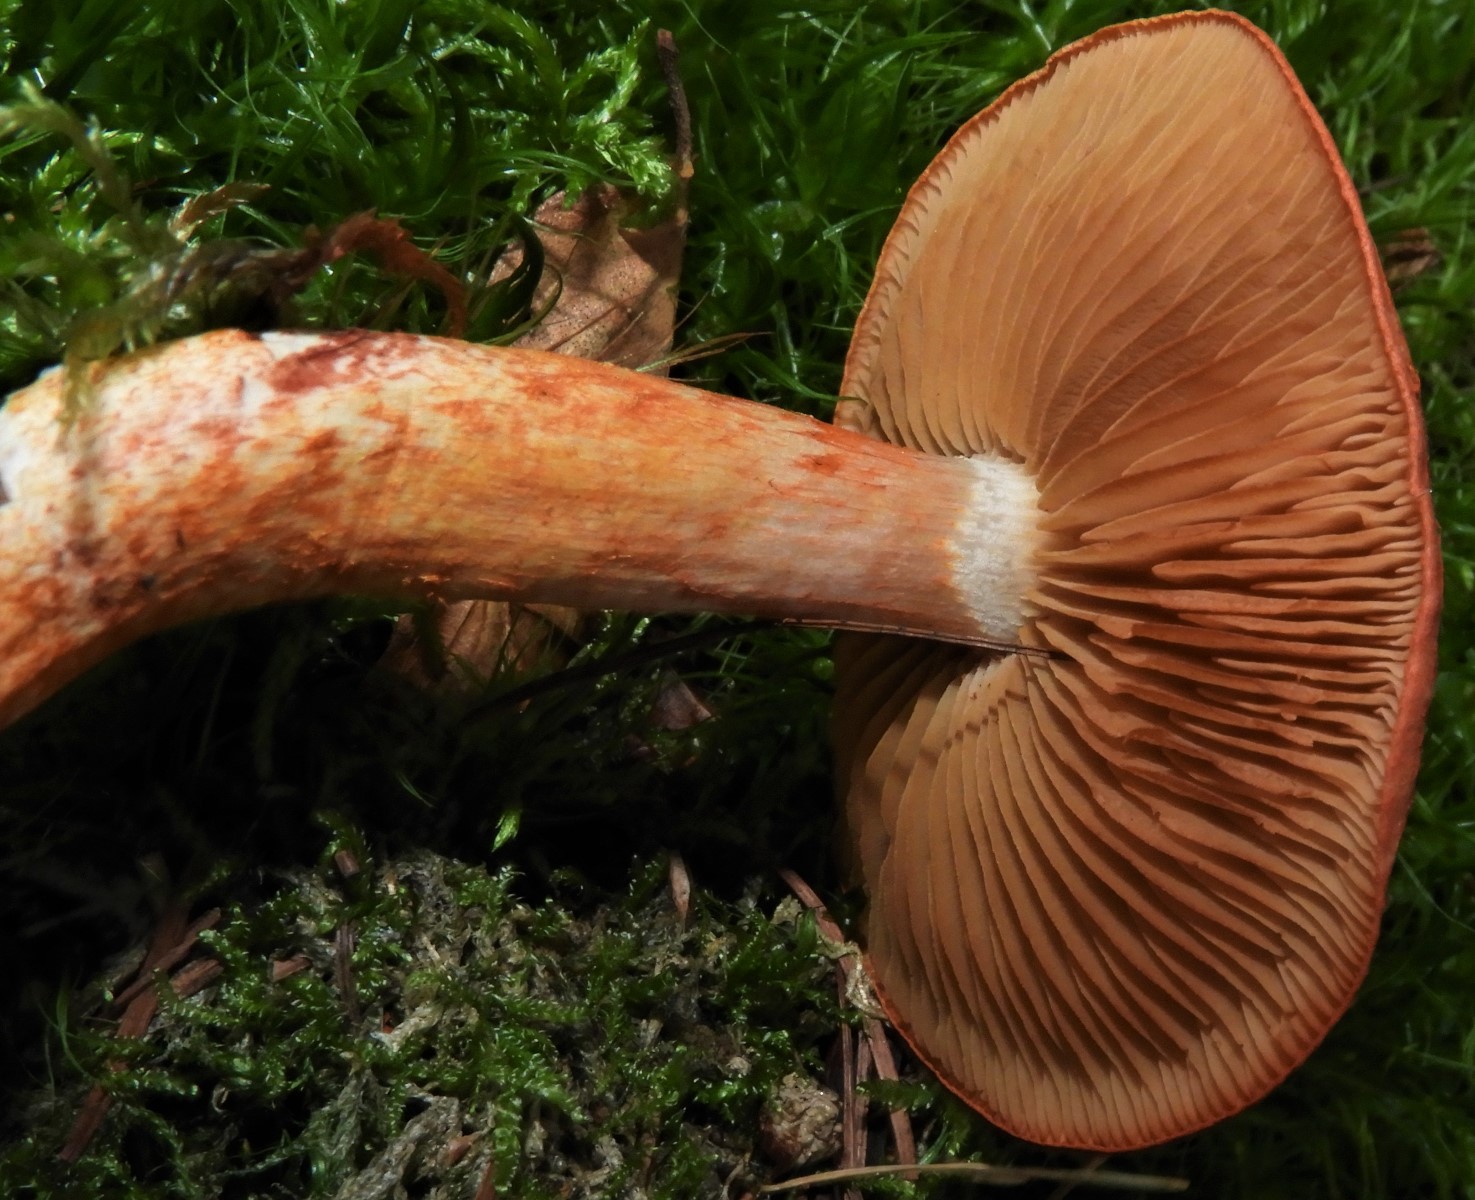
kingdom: Fungi
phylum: Basidiomycota
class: Agaricomycetes
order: Agaricales
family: Cortinariaceae
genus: Cortinarius
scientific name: Cortinarius bolaris
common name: cinnoberskællet slørhat
